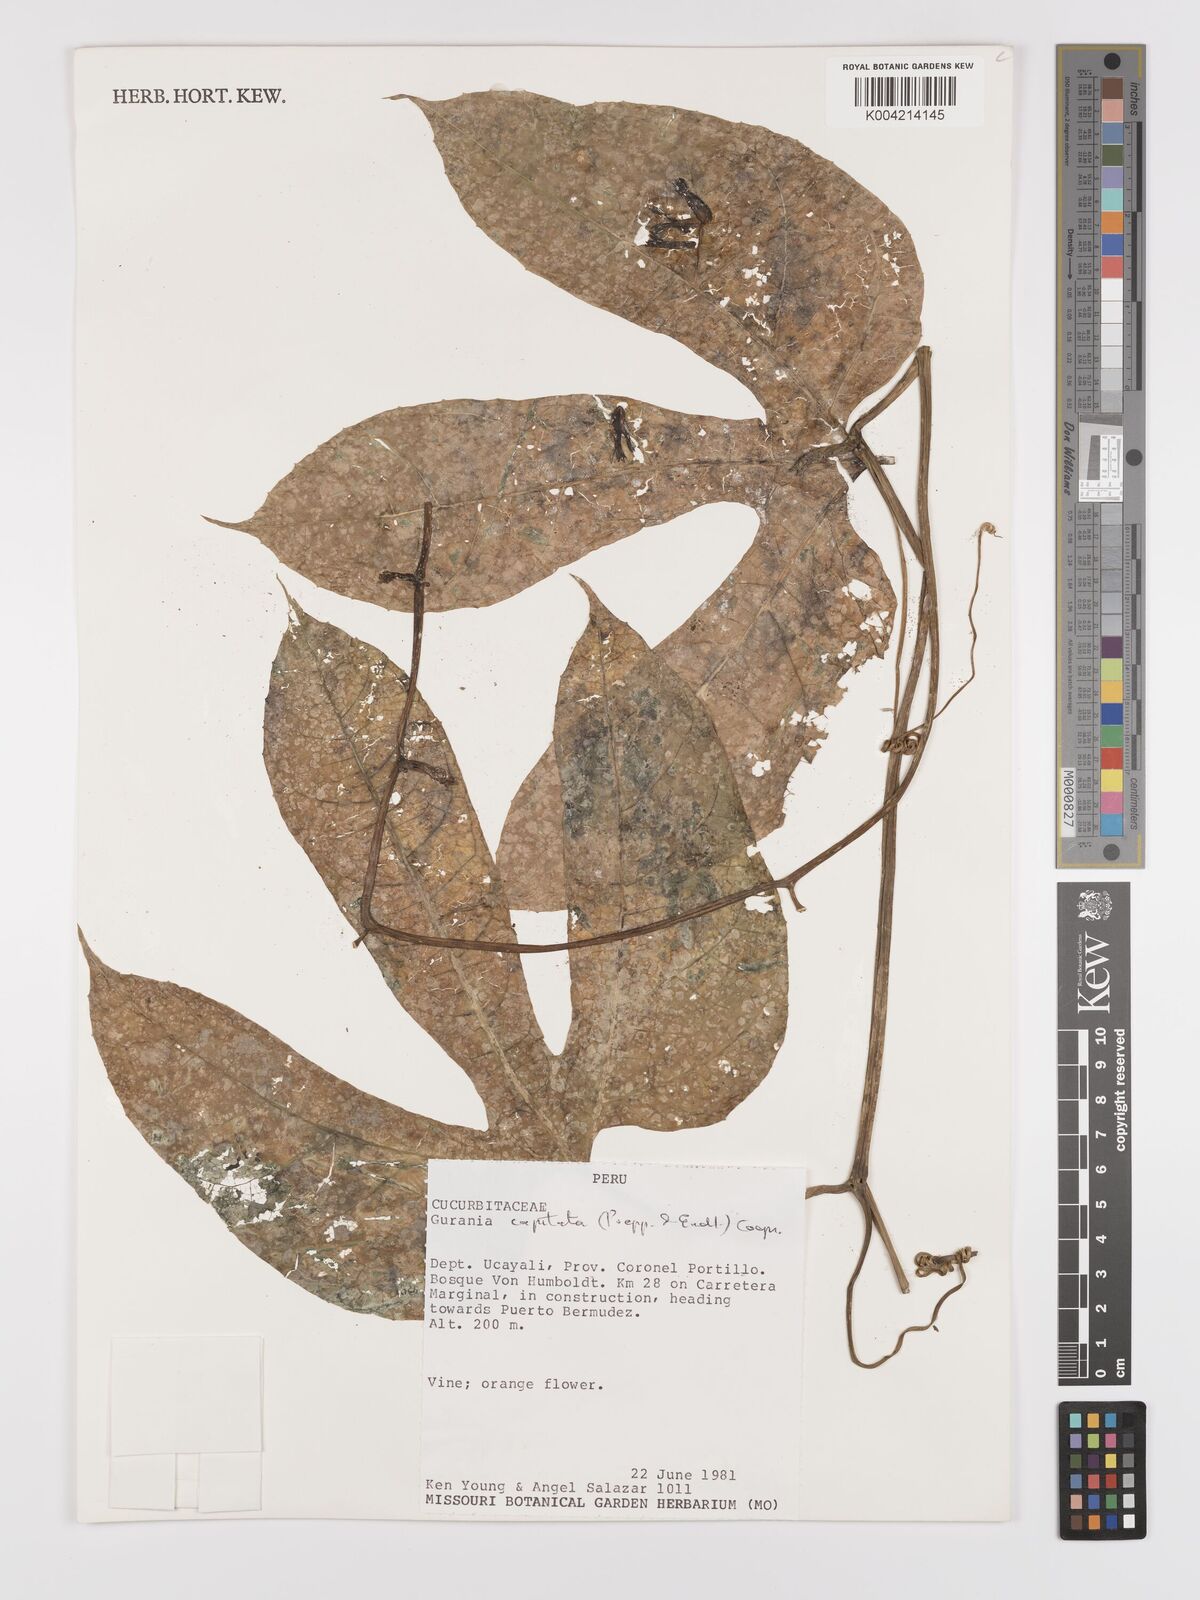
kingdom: Plantae
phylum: Tracheophyta
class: Magnoliopsida
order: Cucurbitales
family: Cucurbitaceae
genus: Gurania
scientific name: Gurania capitata
